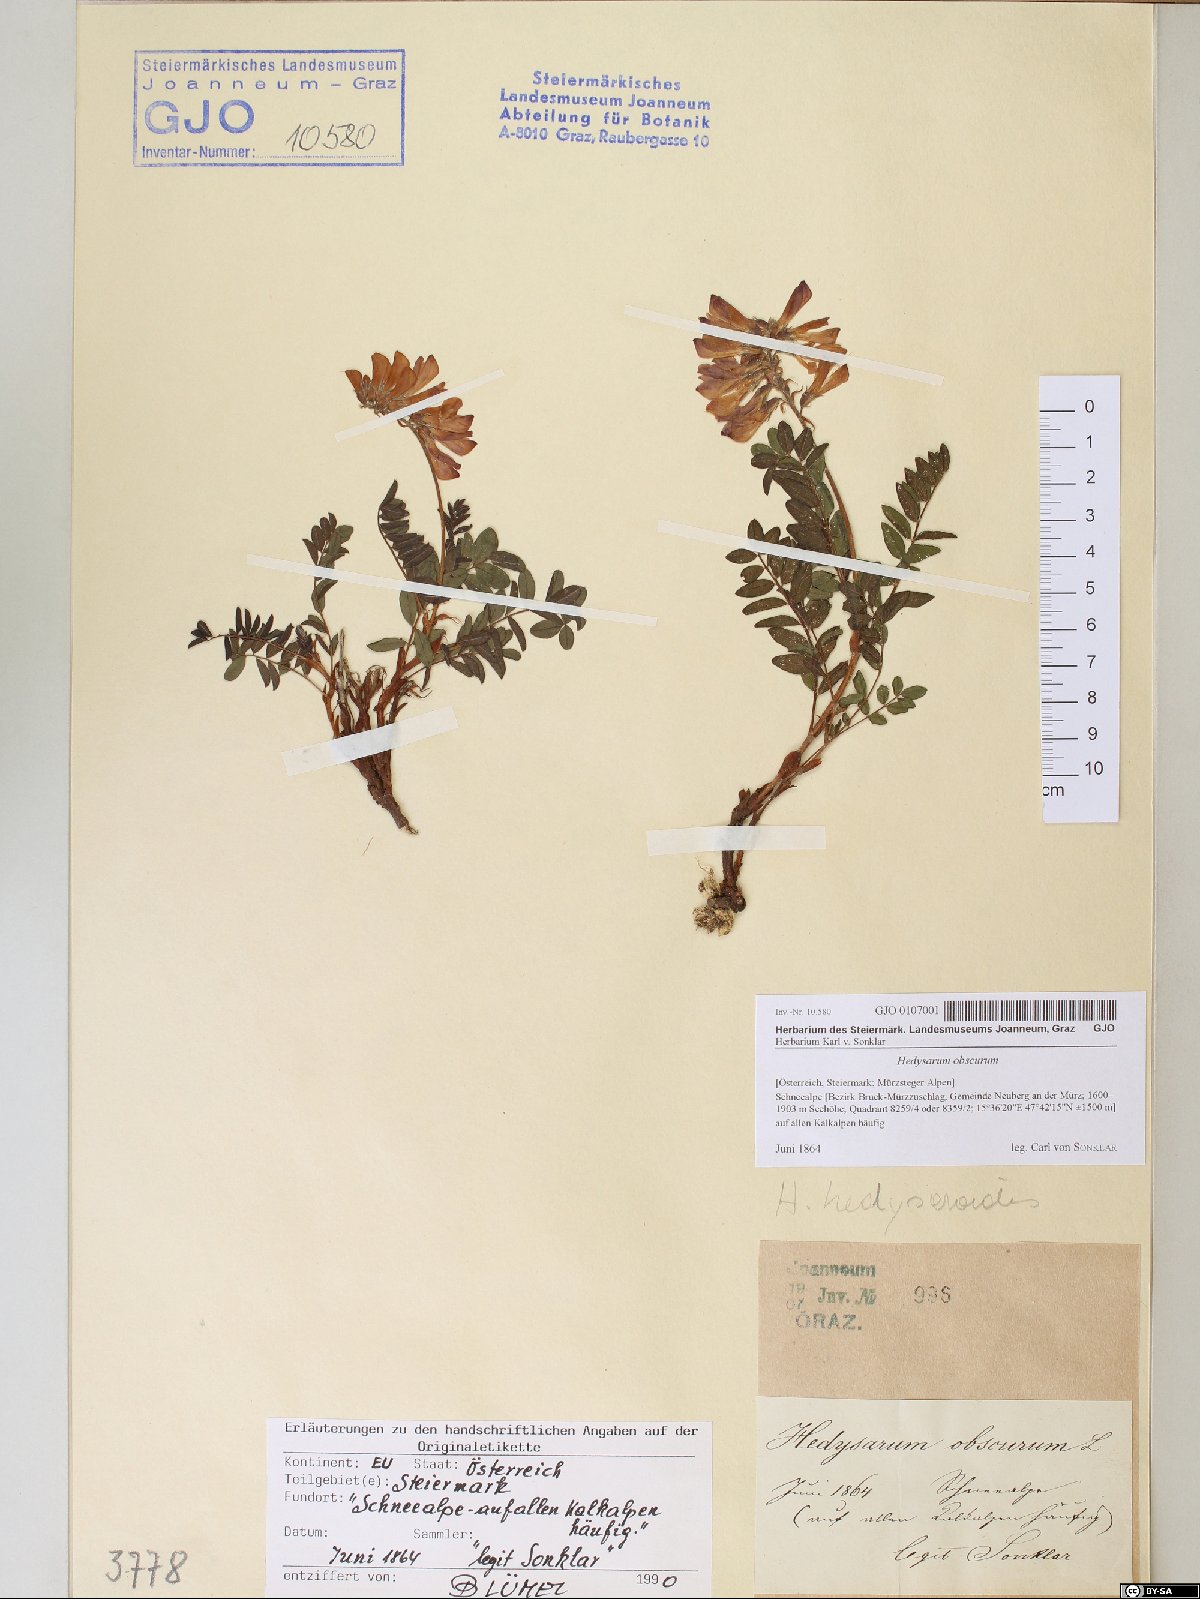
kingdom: Plantae
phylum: Tracheophyta
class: Magnoliopsida
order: Fabales
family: Fabaceae
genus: Hedysarum
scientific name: Hedysarum hedysaroides
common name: Alpine french-honeysuckle
